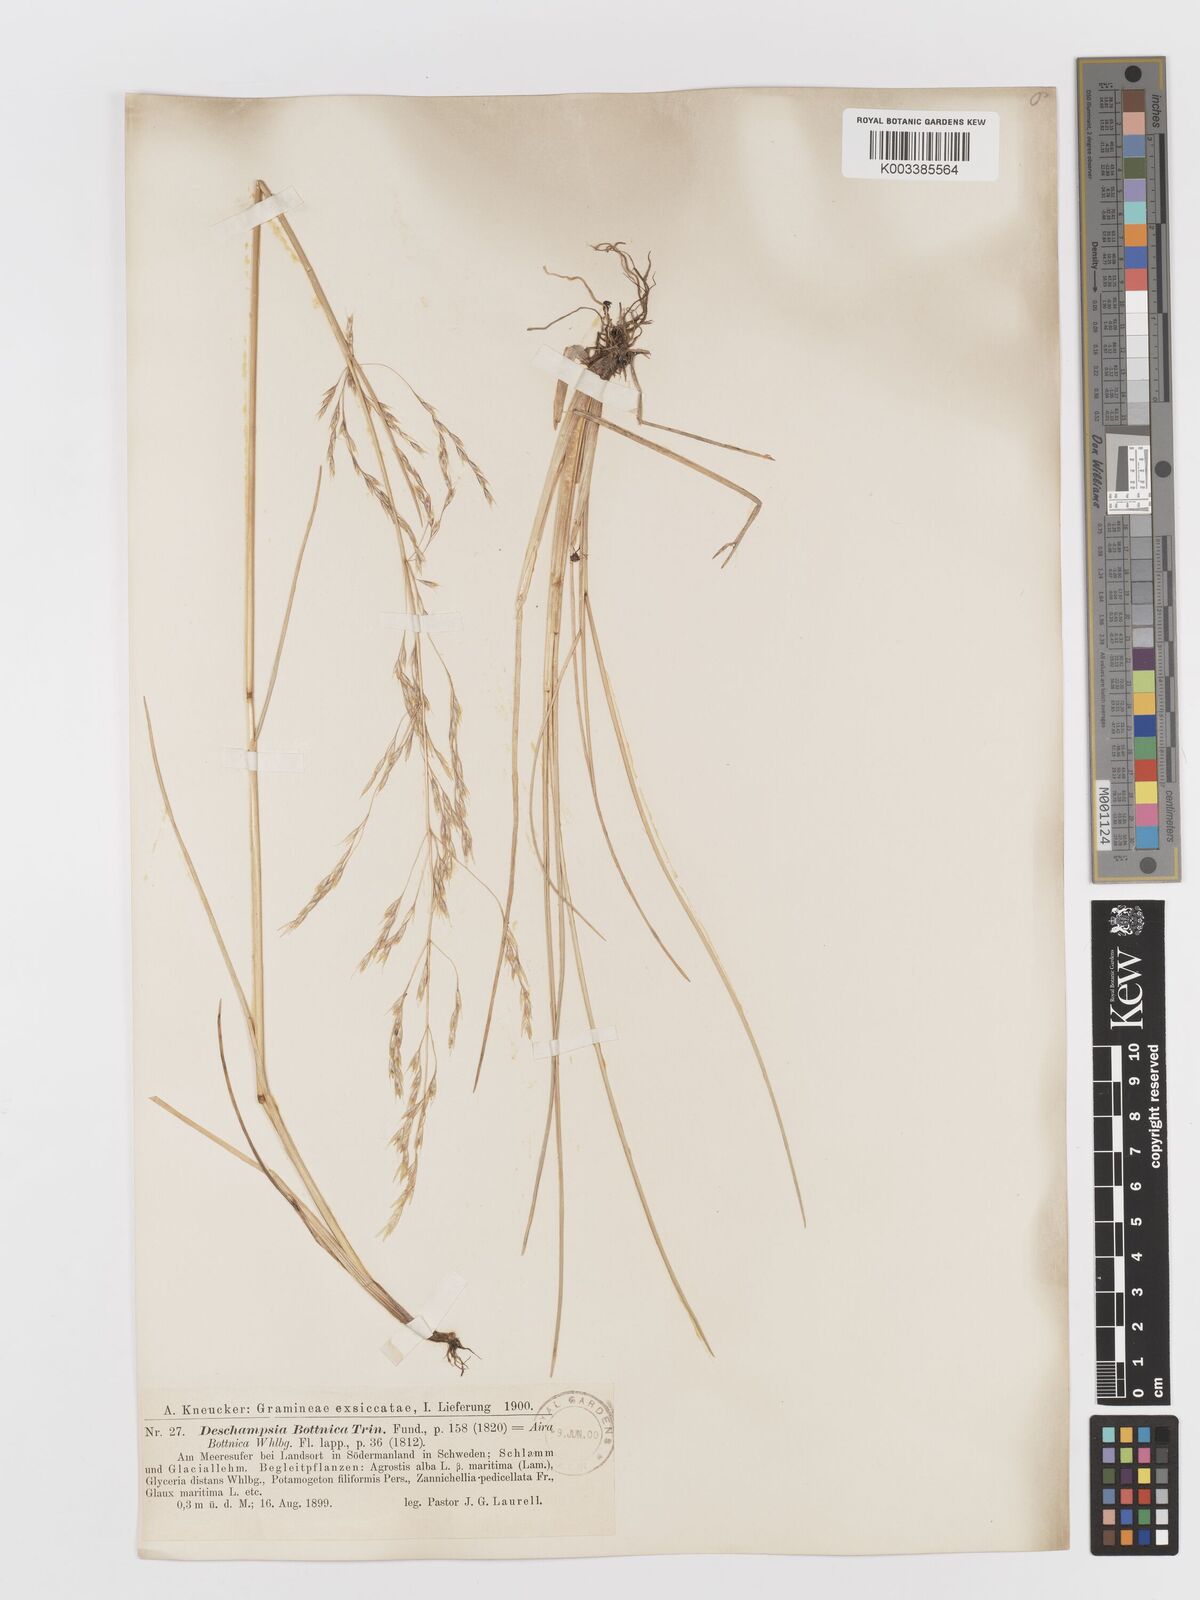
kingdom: Plantae
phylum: Tracheophyta
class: Liliopsida
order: Poales
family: Poaceae
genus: Deschampsia
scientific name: Deschampsia cespitosa
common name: Tufted hair-grass
